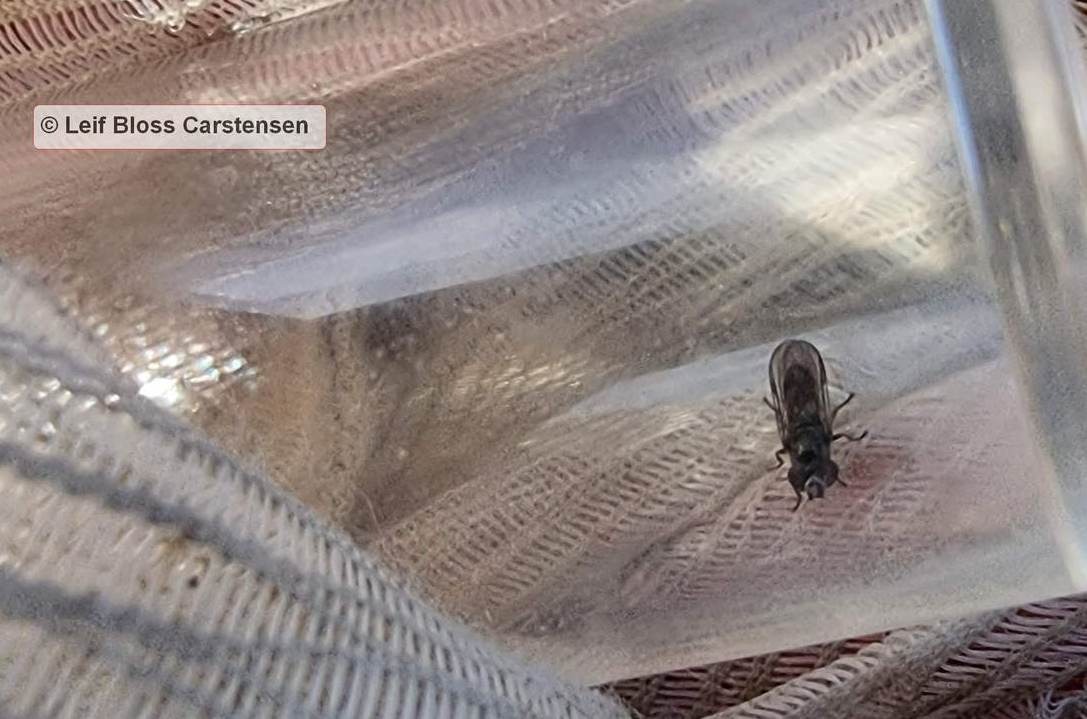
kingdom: Animalia
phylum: Arthropoda
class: Insecta
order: Diptera
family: Syrphidae
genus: Chamaesyrphus
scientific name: Chamaesyrphus lugubris
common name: Dværg-svirreflue
